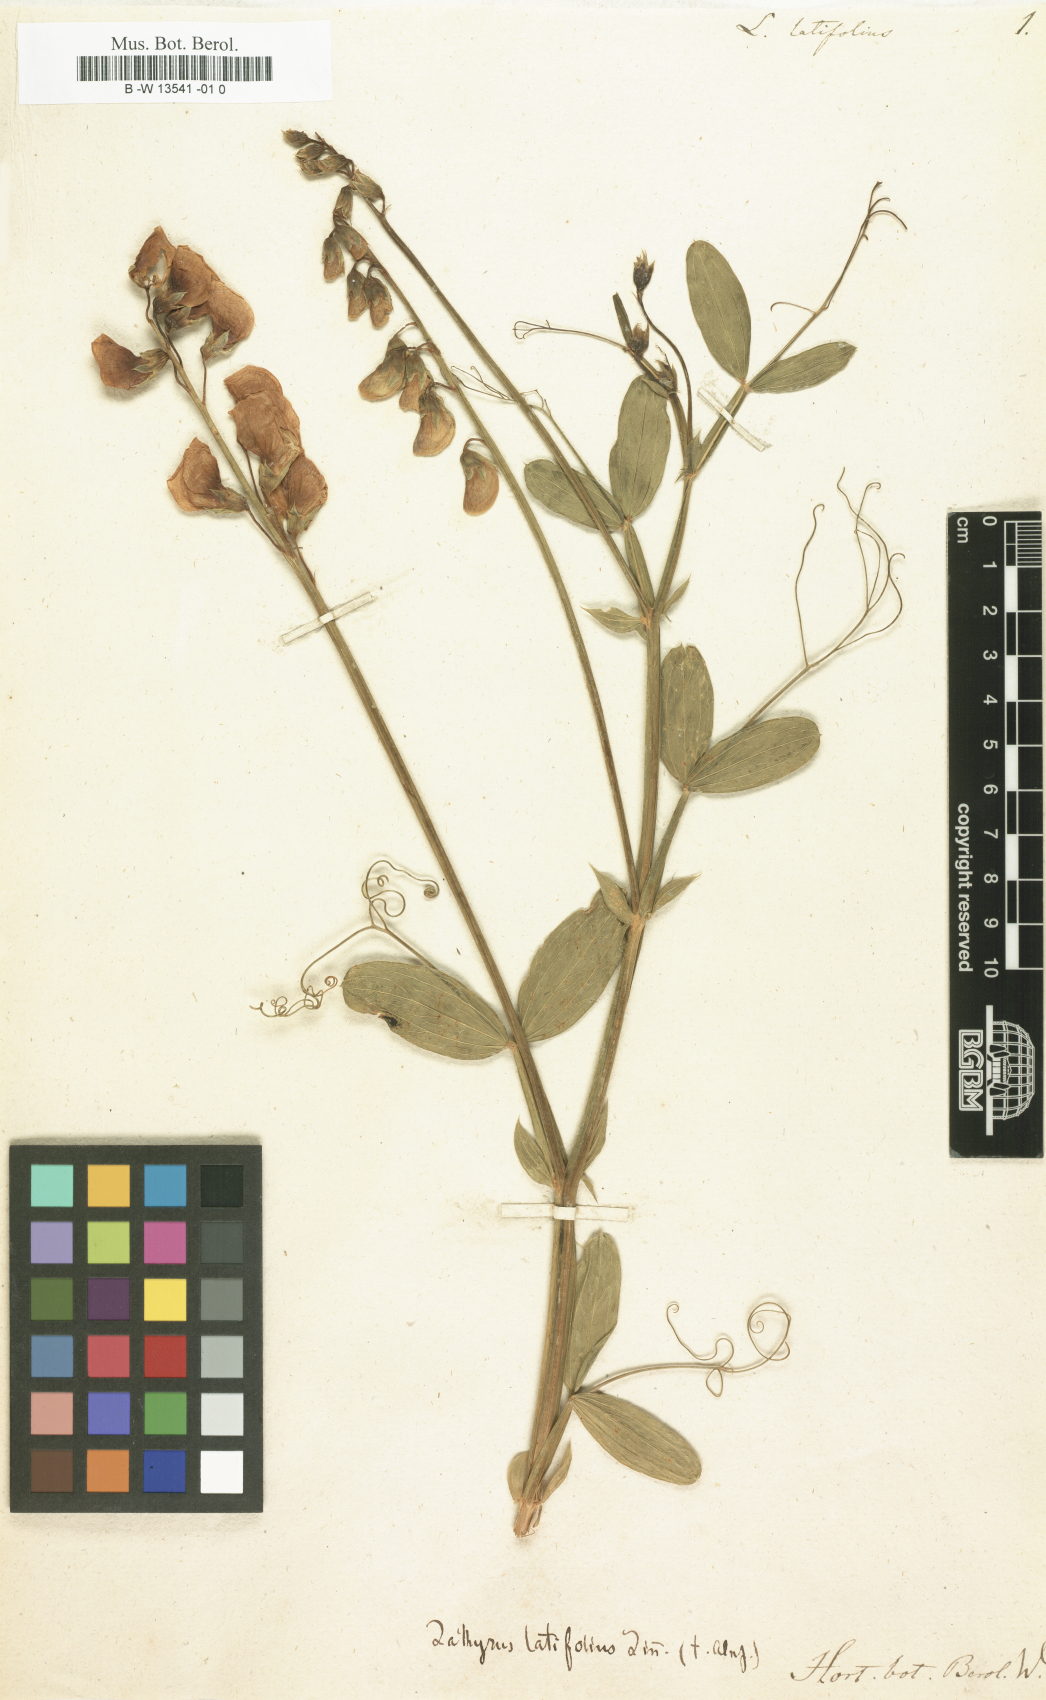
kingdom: Plantae
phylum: Tracheophyta
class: Magnoliopsida
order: Fabales
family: Fabaceae
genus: Lathyrus
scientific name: Lathyrus latifolius
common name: Perennial pea
